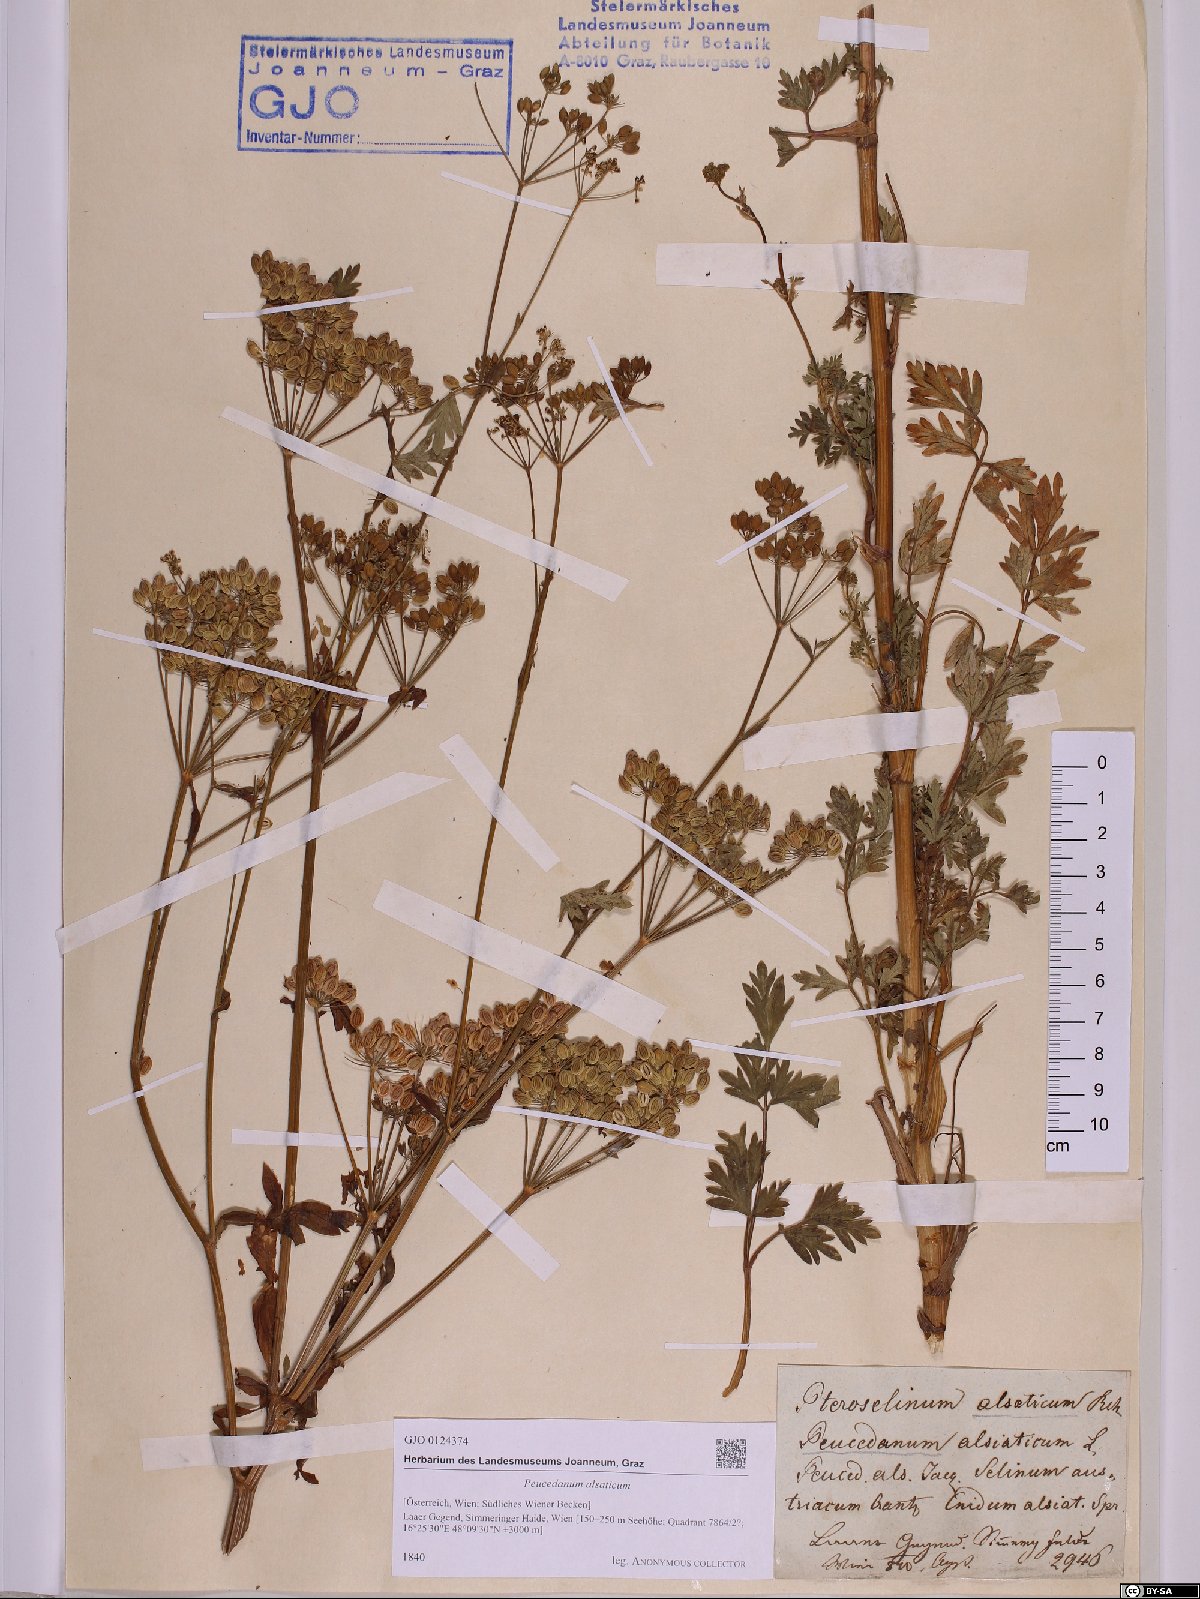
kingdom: Plantae
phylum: Tracheophyta
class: Magnoliopsida
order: Apiales
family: Apiaceae
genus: Xanthoselinum
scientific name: Xanthoselinum alsaticum
